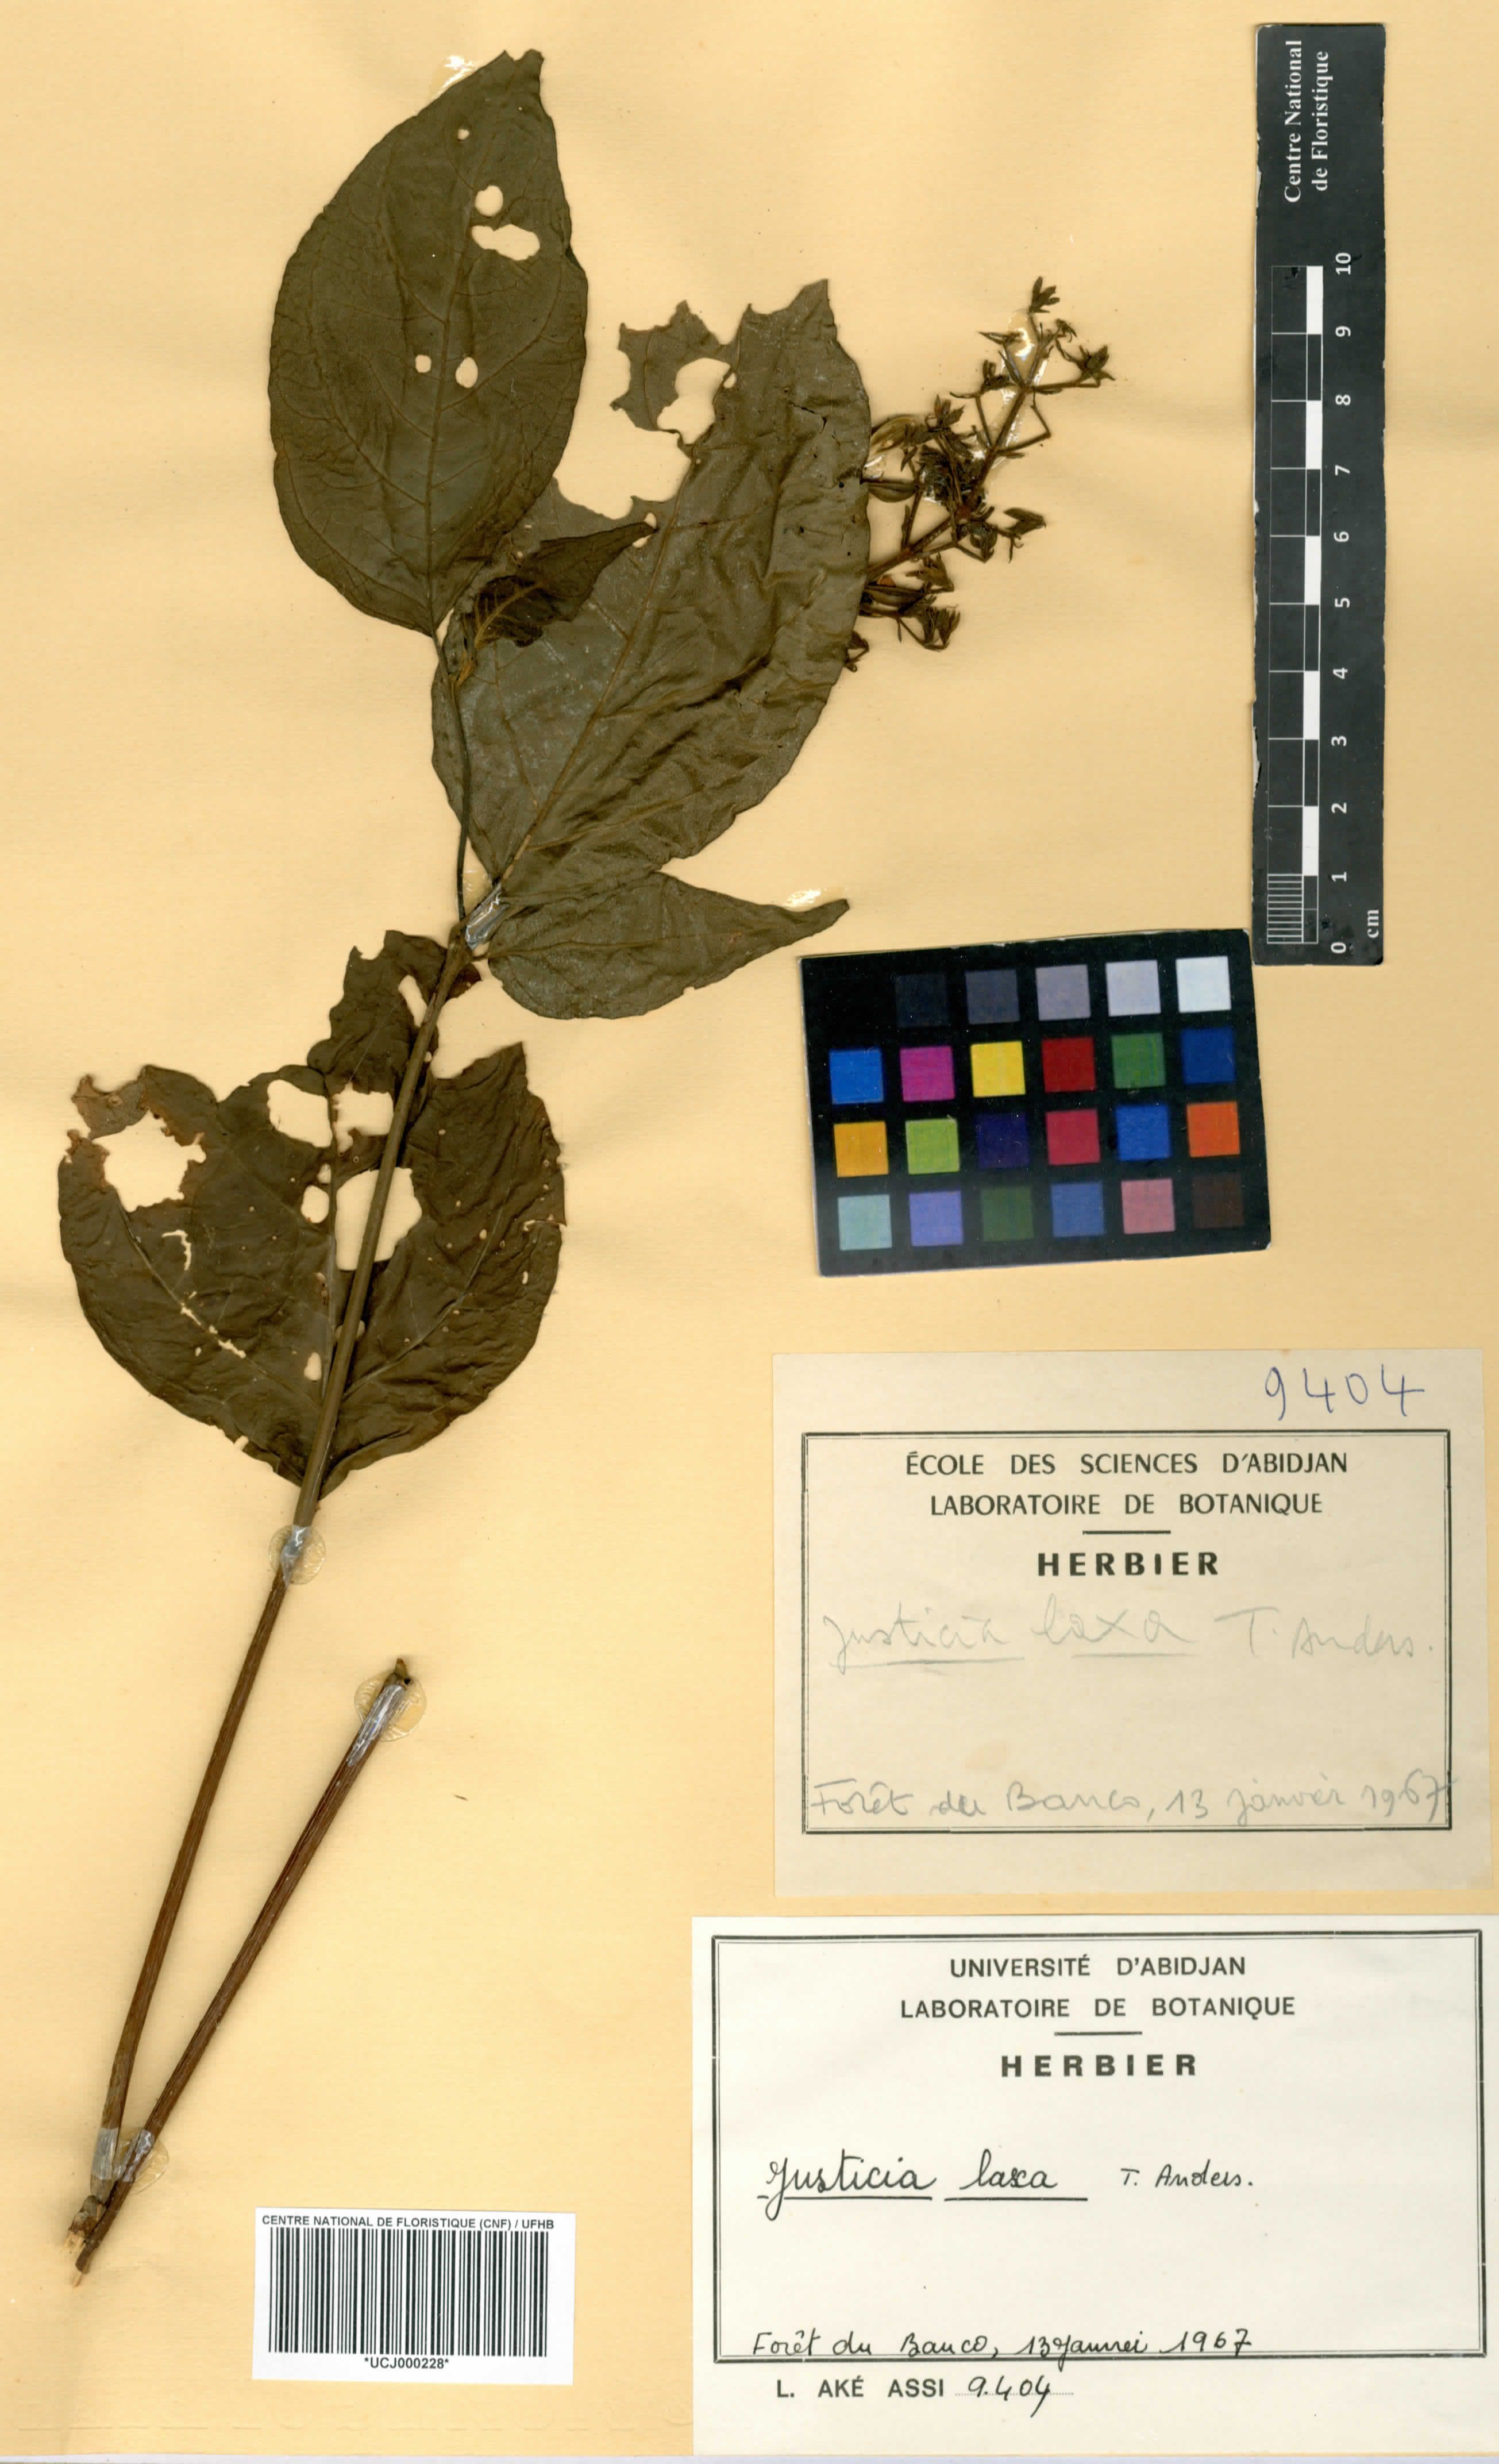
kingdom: Plantae
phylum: Tracheophyta
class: Magnoliopsida
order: Lamiales
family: Acanthaceae
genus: Justicia
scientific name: Justicia laxa
